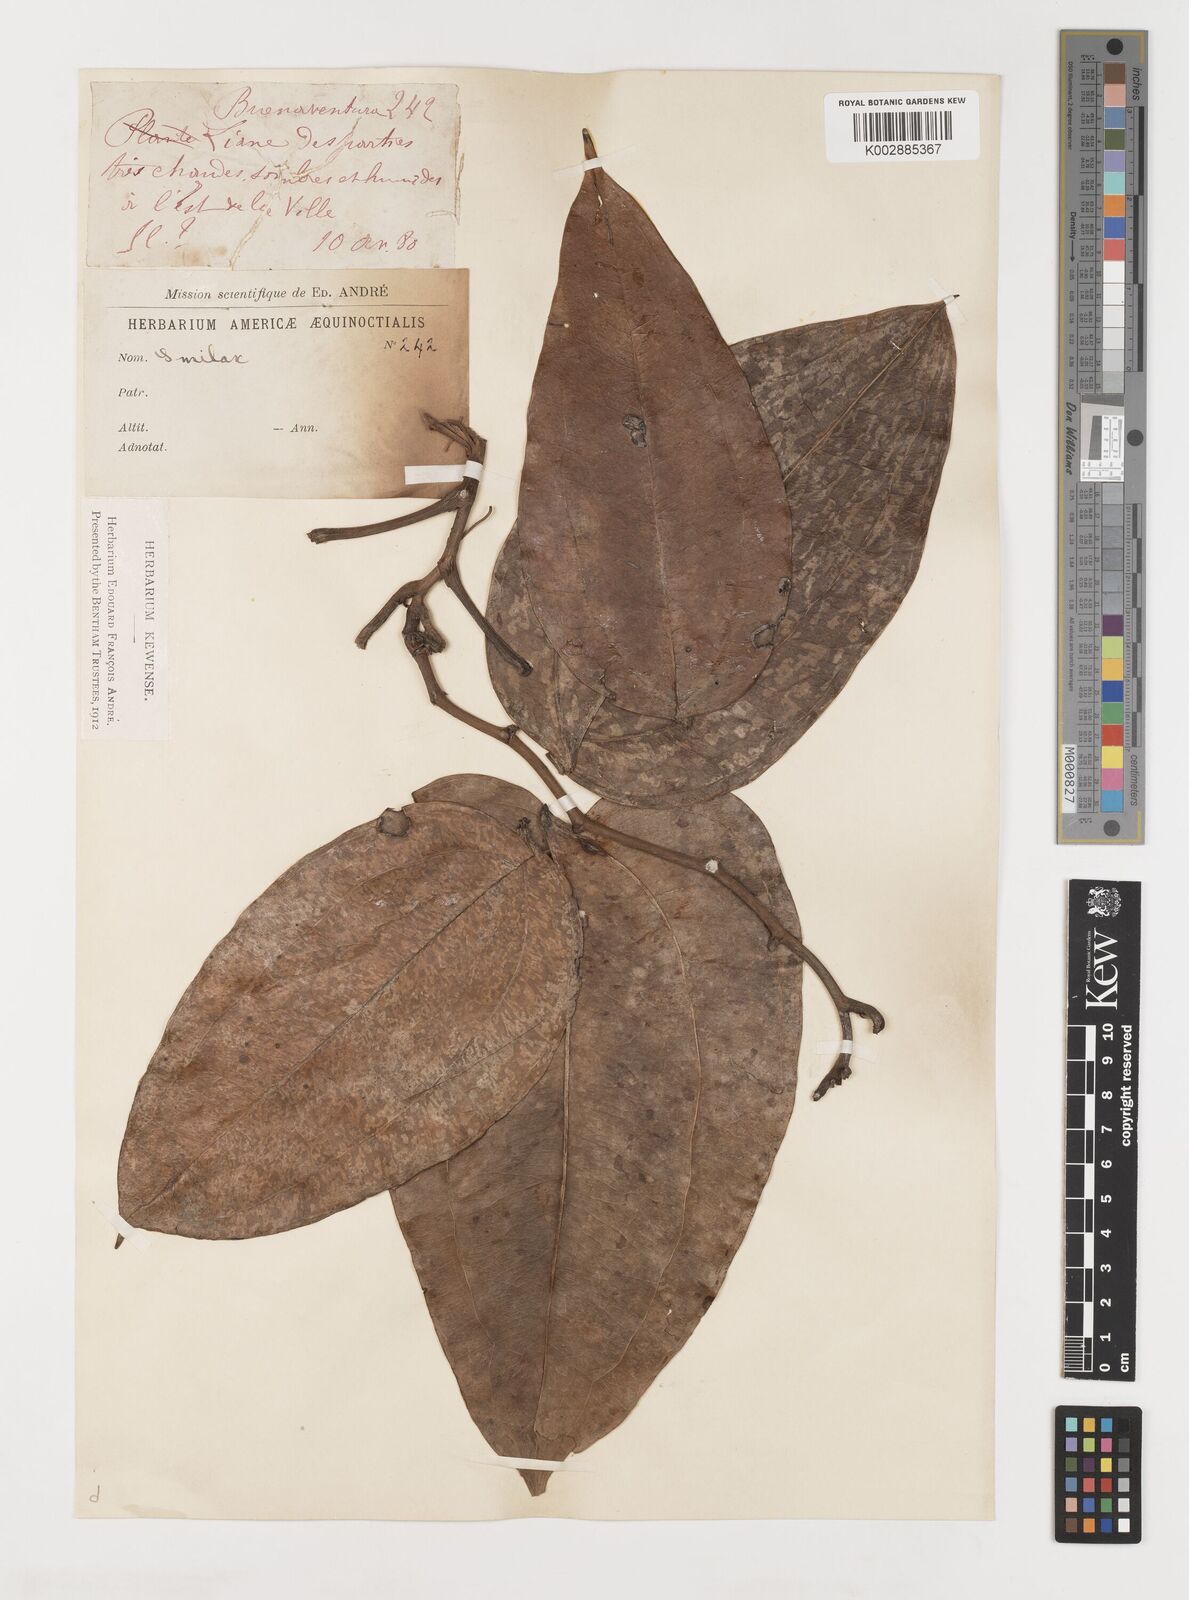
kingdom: Plantae
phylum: Tracheophyta
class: Liliopsida
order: Liliales
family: Smilacaceae
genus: Smilax
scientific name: Smilax
